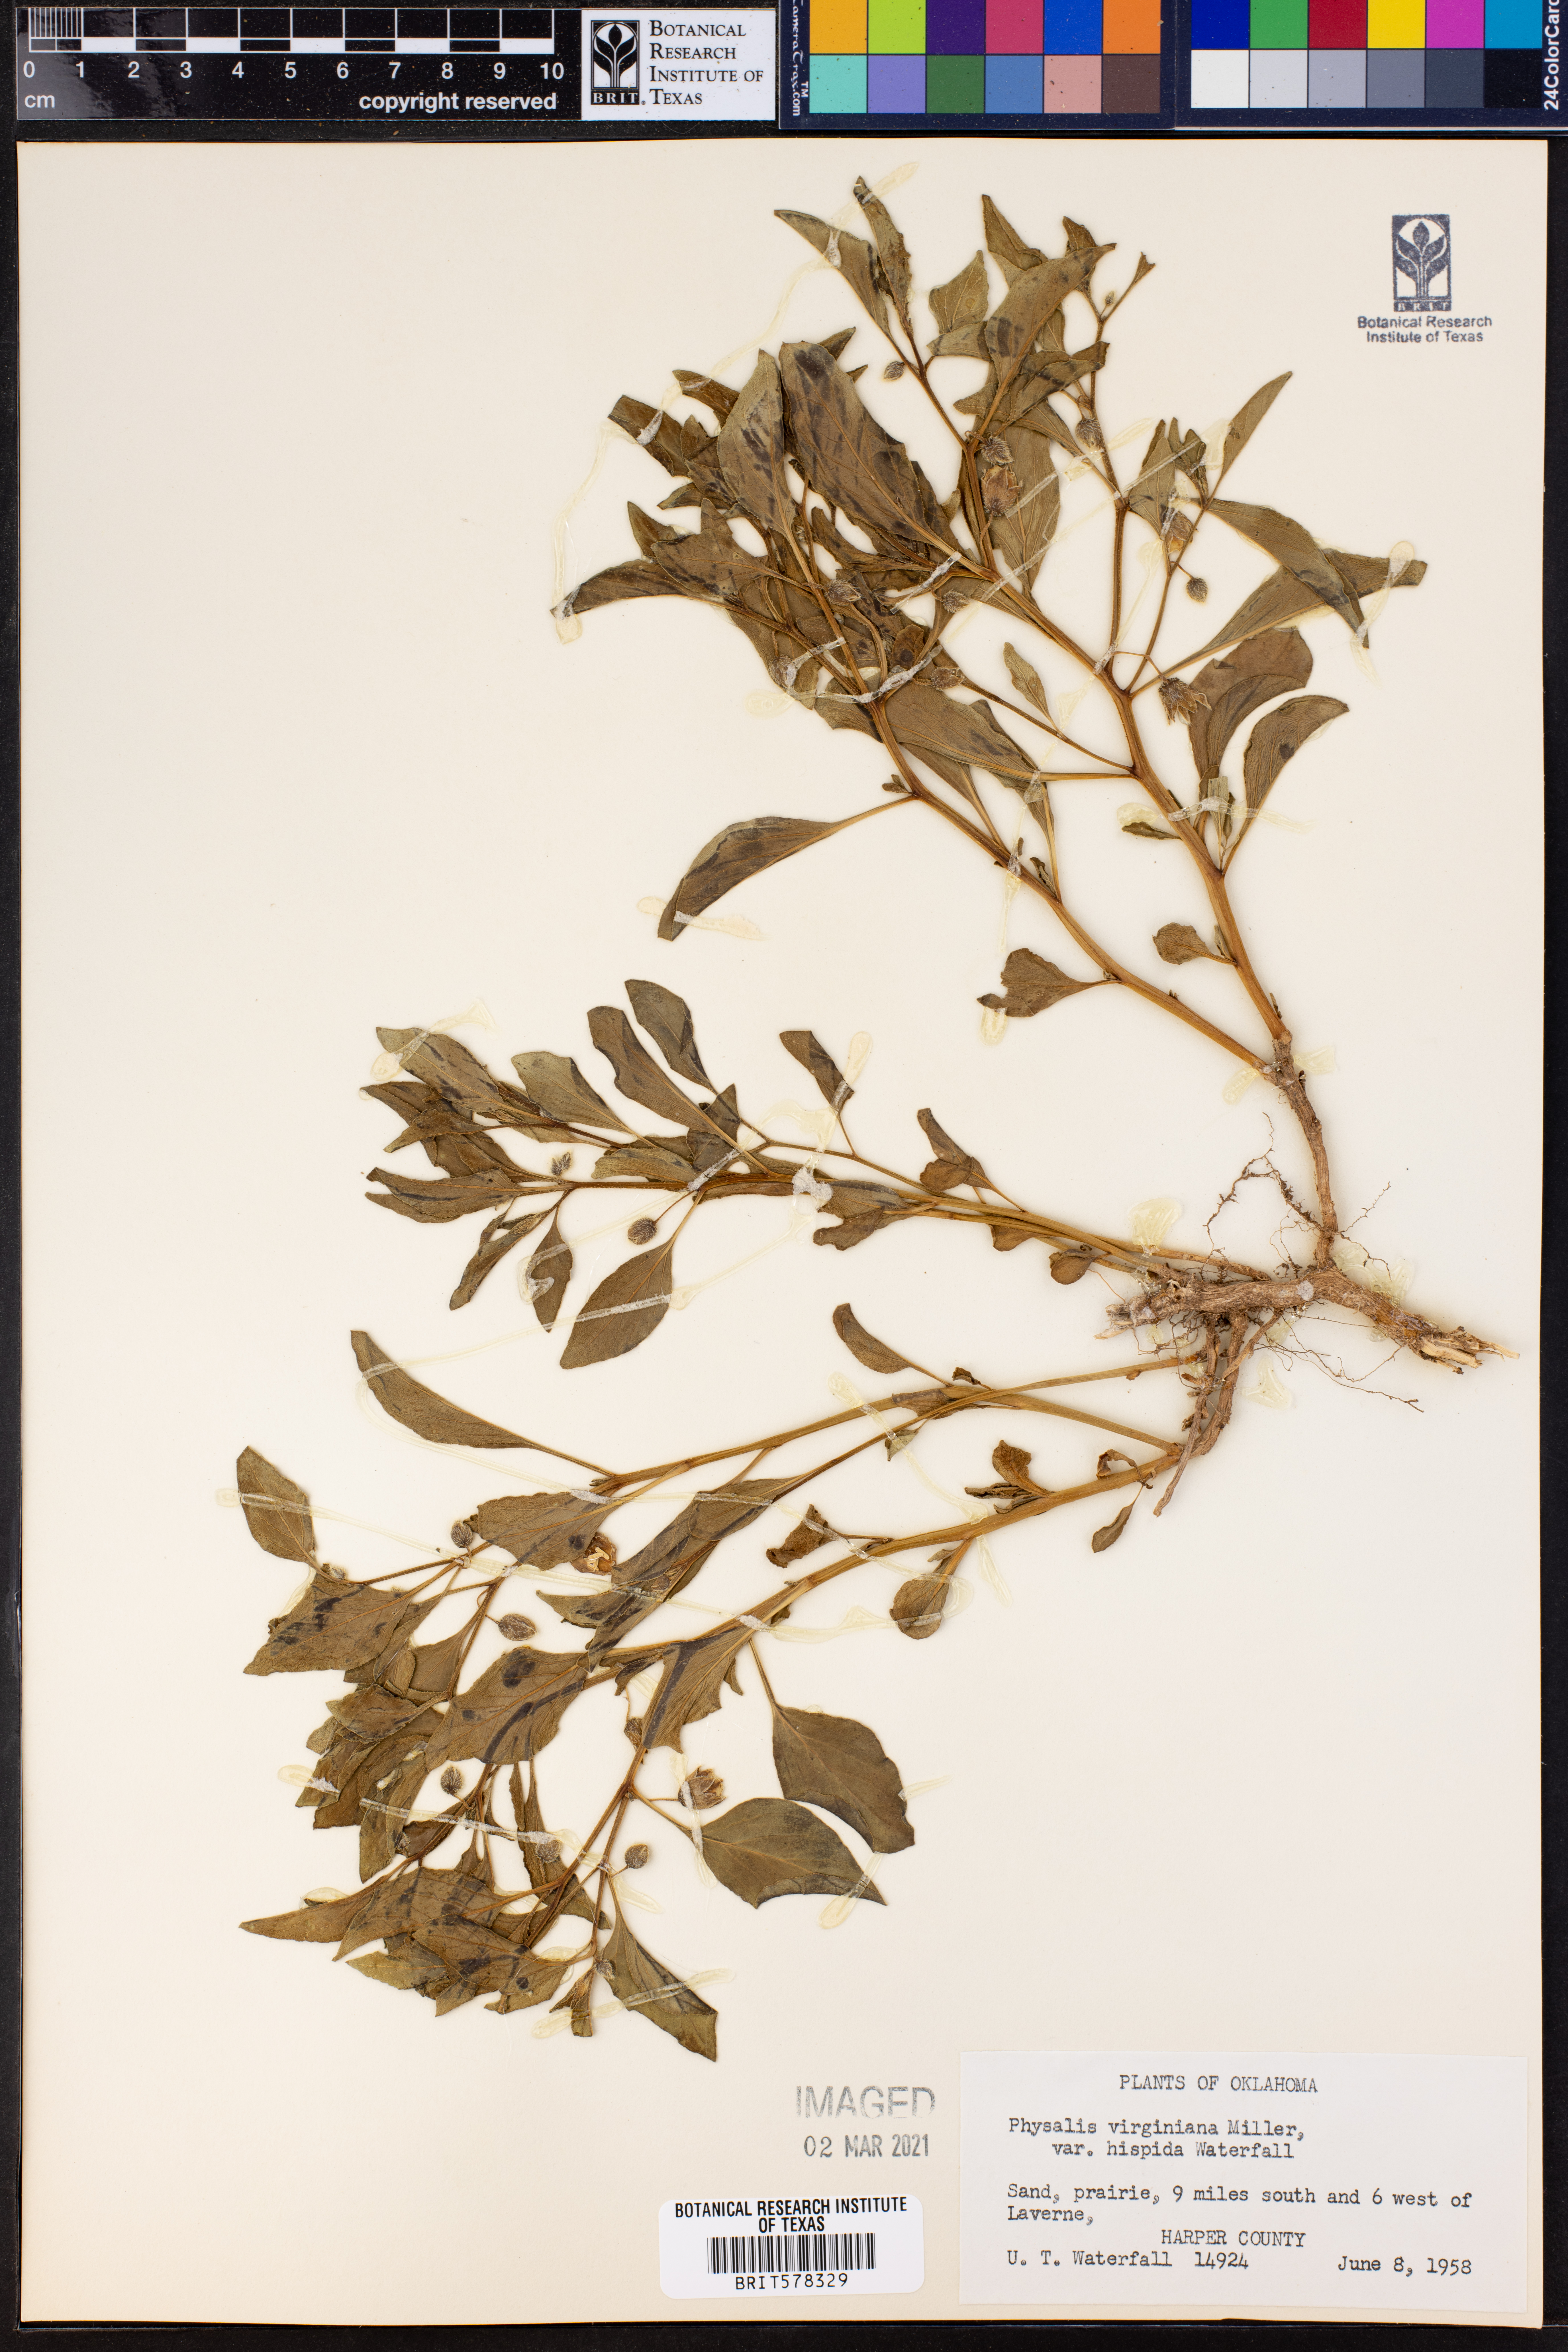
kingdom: Plantae
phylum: Tracheophyta
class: Magnoliopsida
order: Solanales
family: Solanaceae
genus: Physalis
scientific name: Physalis pumila
